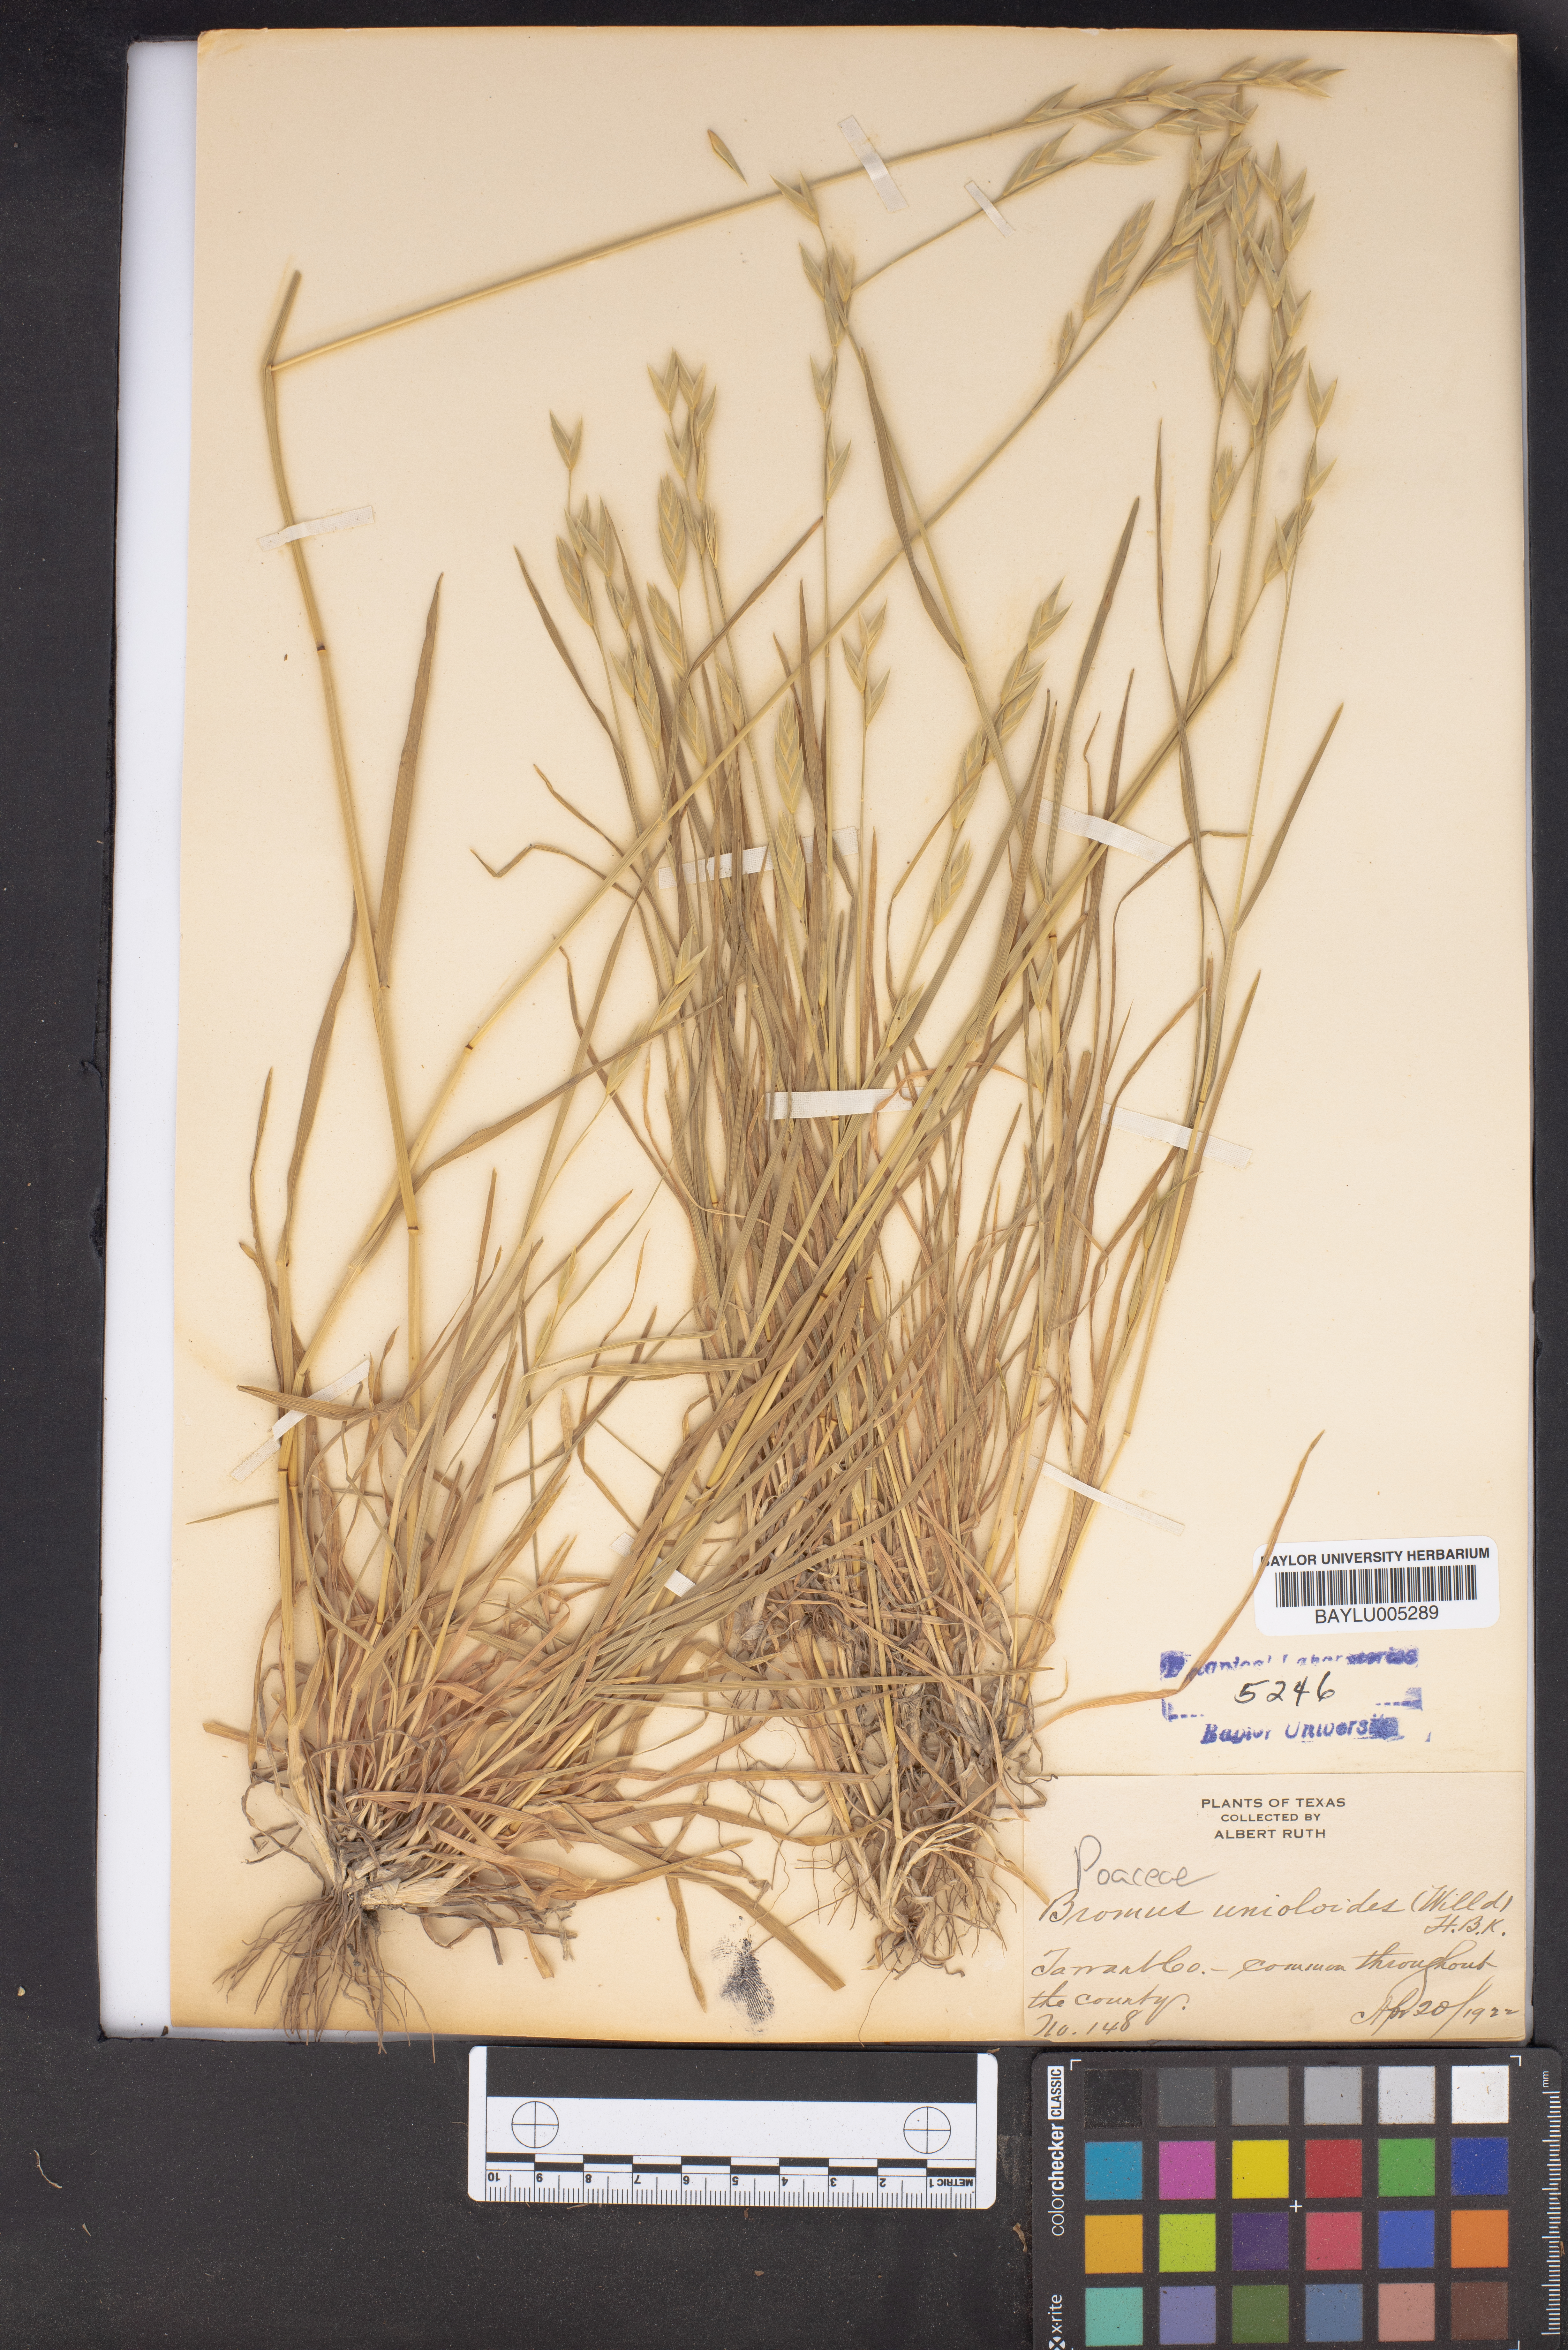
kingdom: Plantae
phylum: Tracheophyta
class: Liliopsida
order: Poales
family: Poaceae
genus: Bromus
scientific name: Bromus catharticus
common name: Rescuegrass
